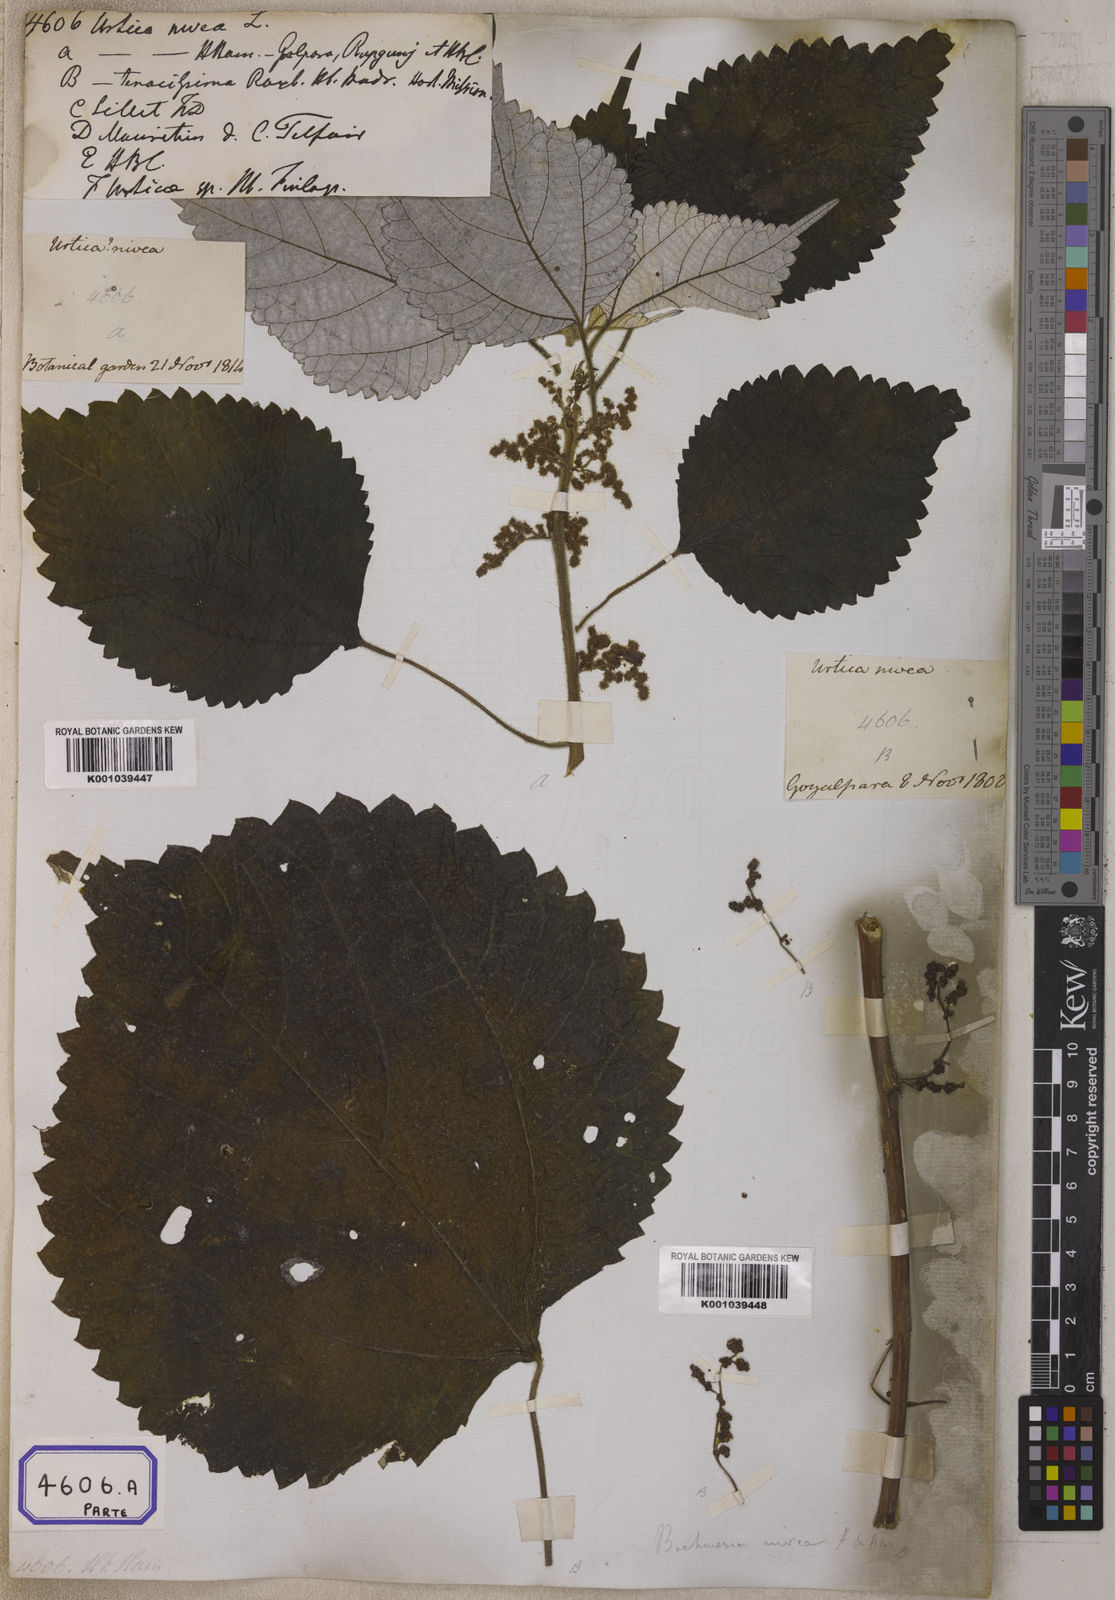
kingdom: Plantae
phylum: Tracheophyta
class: Magnoliopsida
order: Rosales
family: Urticaceae
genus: Boehmeria
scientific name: Boehmeria nivea
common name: Ramie chinese grass
